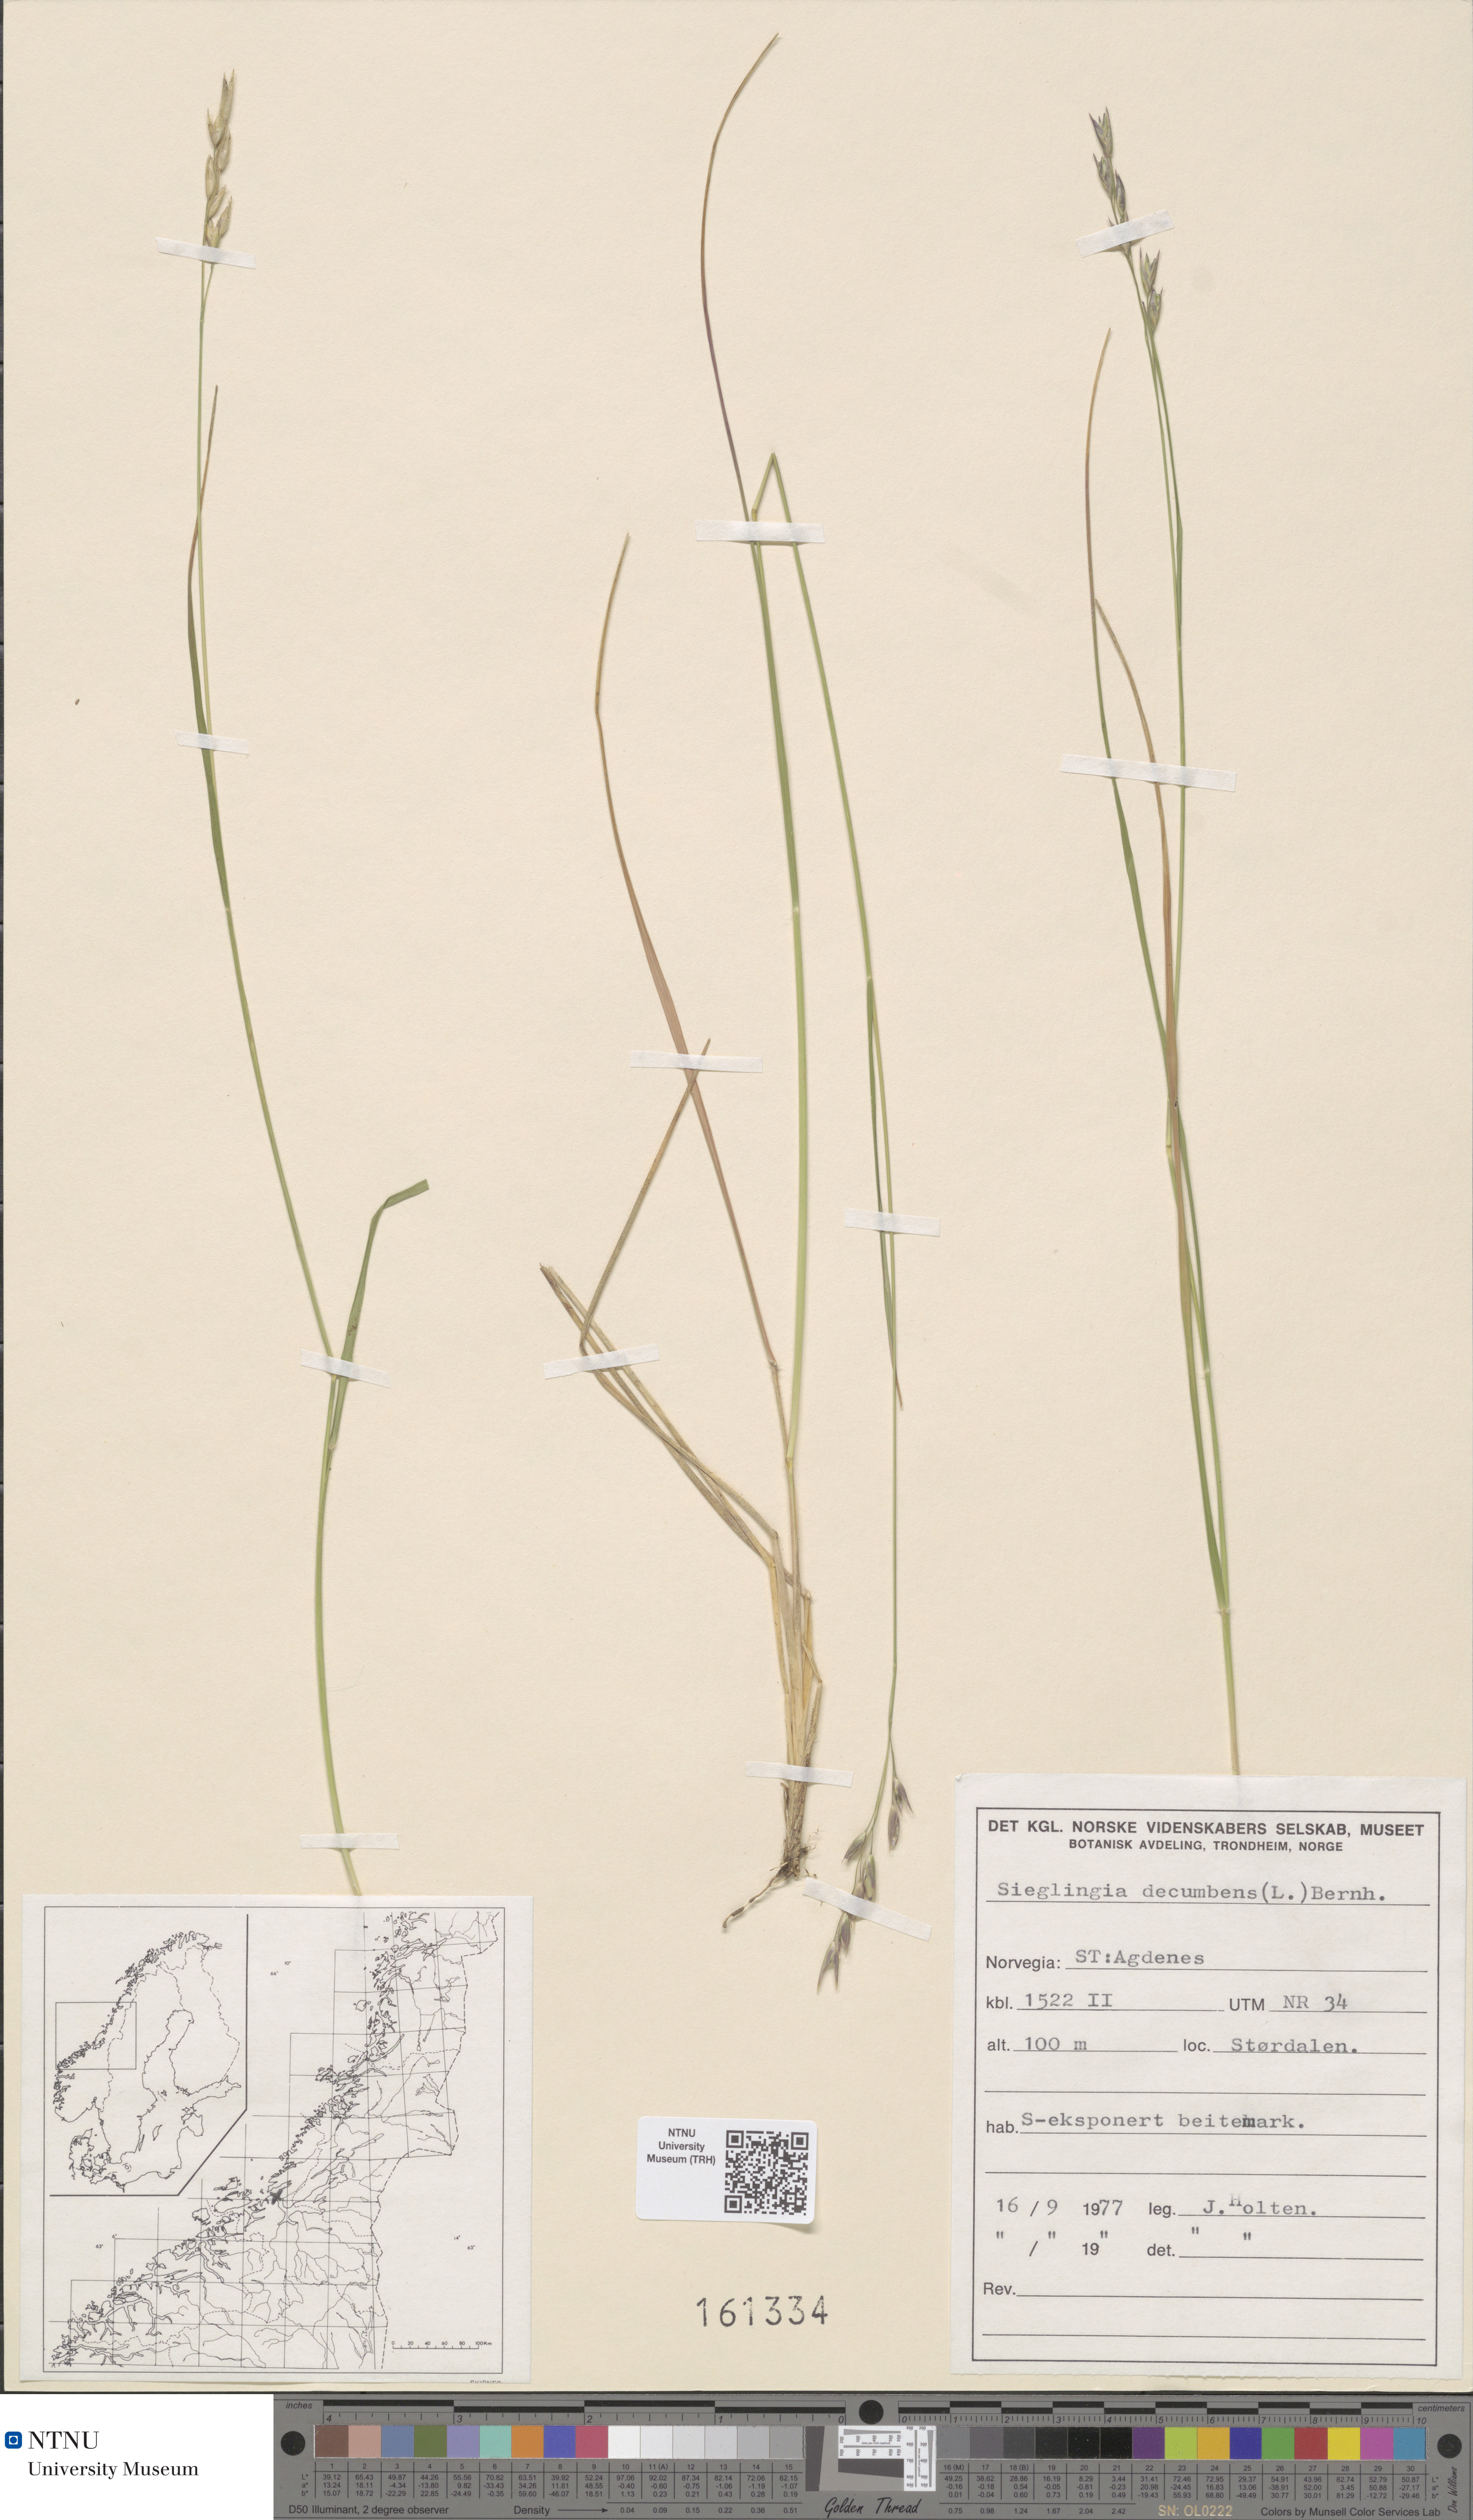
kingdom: Plantae
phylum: Tracheophyta
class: Liliopsida
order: Poales
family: Poaceae
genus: Danthonia
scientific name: Danthonia decumbens
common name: Common heathgrass
